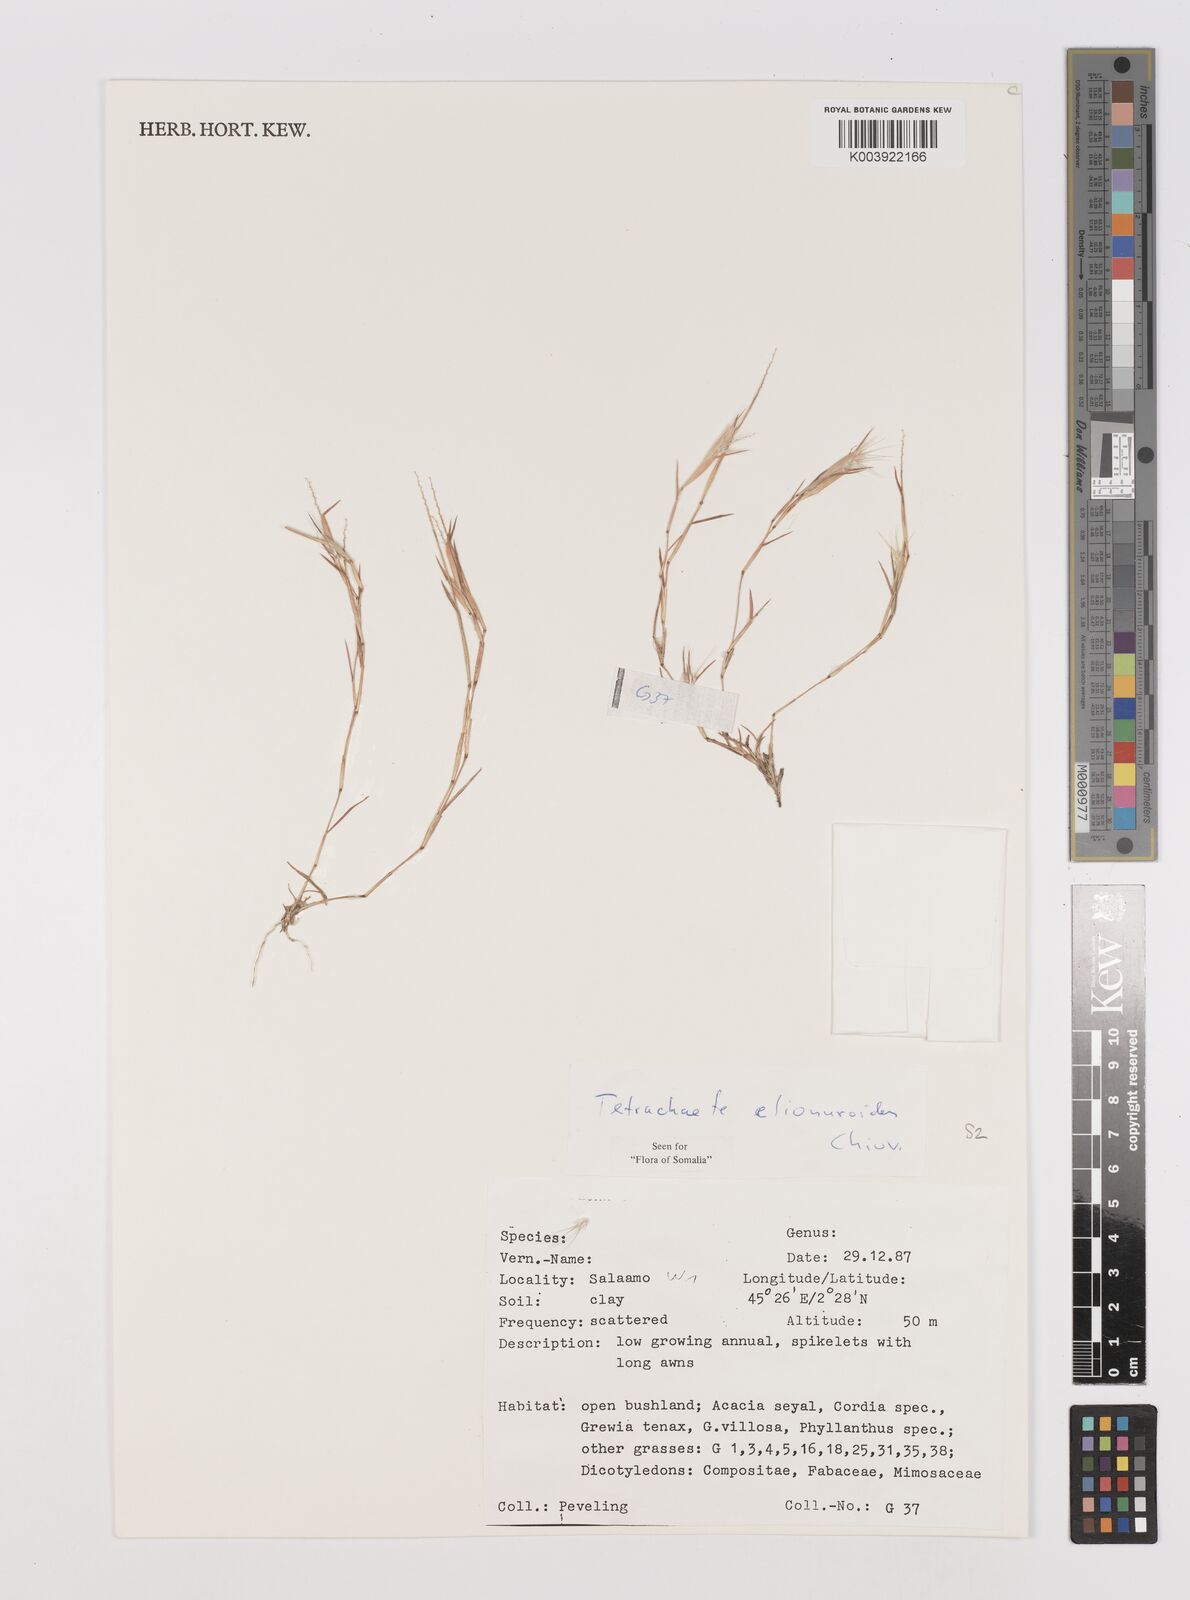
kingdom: Plantae
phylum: Tracheophyta
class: Liliopsida
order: Poales
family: Poaceae
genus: Tetrachaete
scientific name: Tetrachaete elionuroides
